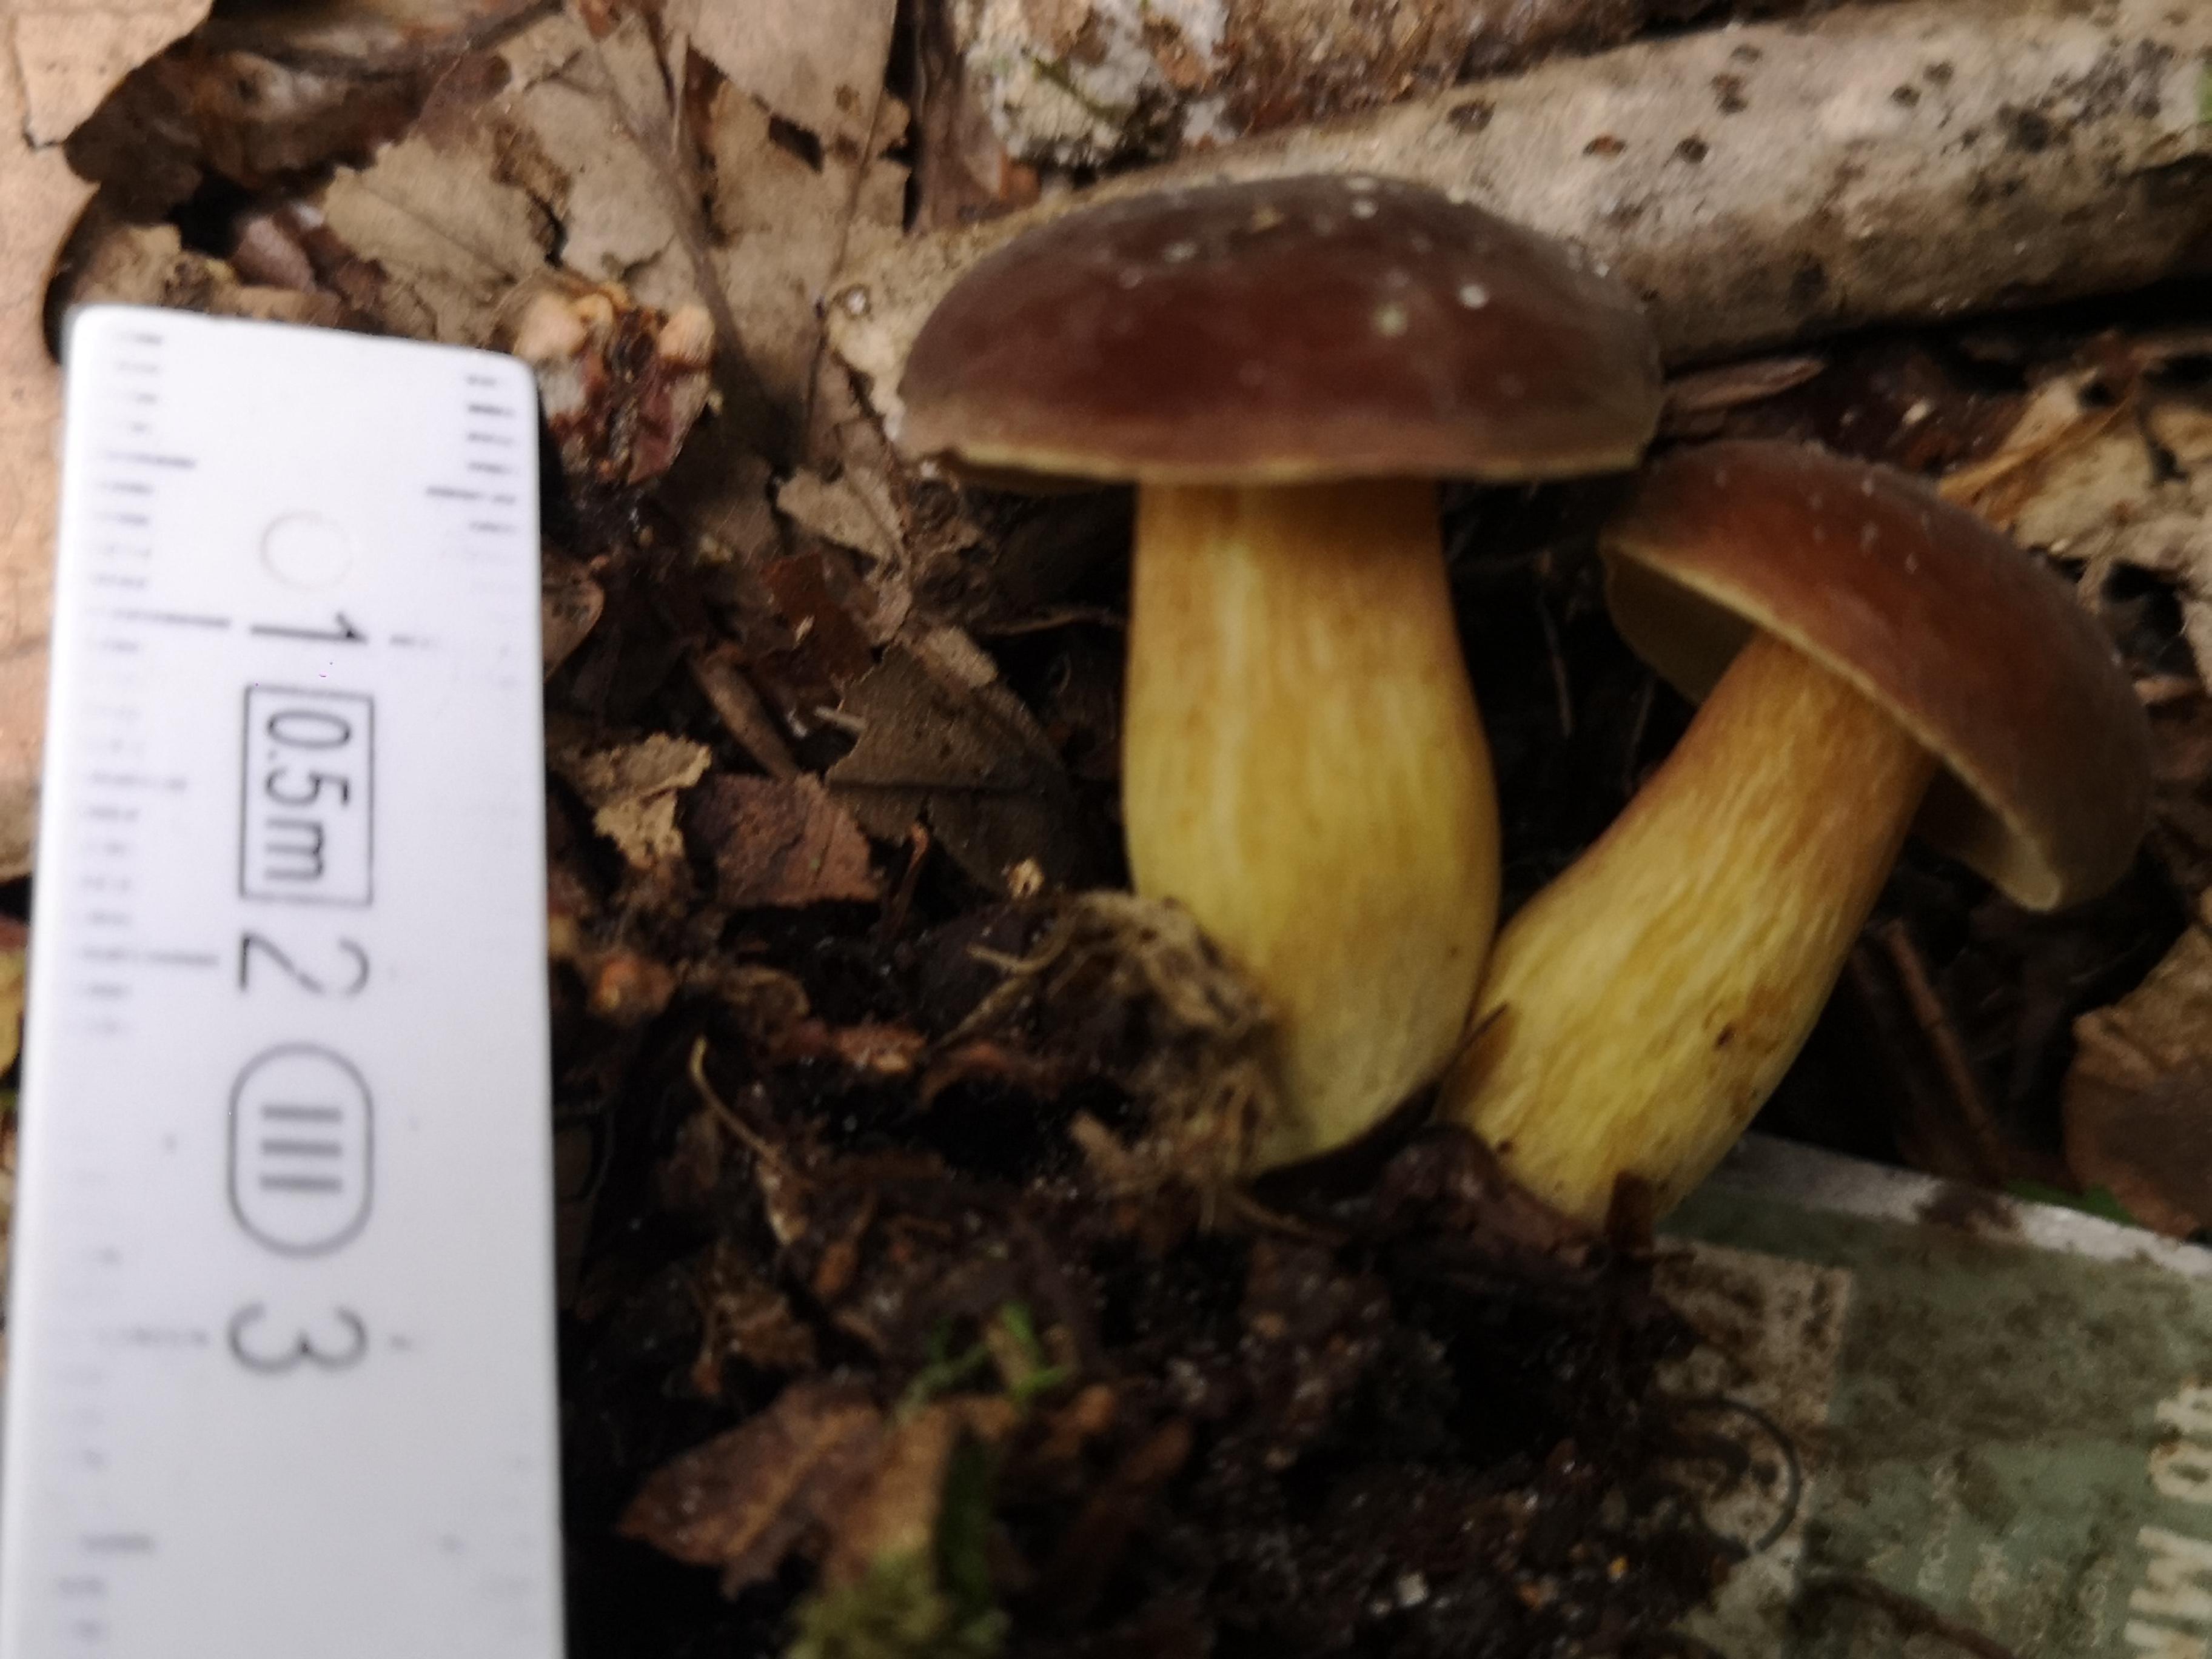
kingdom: Fungi
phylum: Basidiomycota
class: Agaricomycetes
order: Boletales
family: Boletaceae
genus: Imleria
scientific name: Imleria badia
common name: brunstokket rørhat
